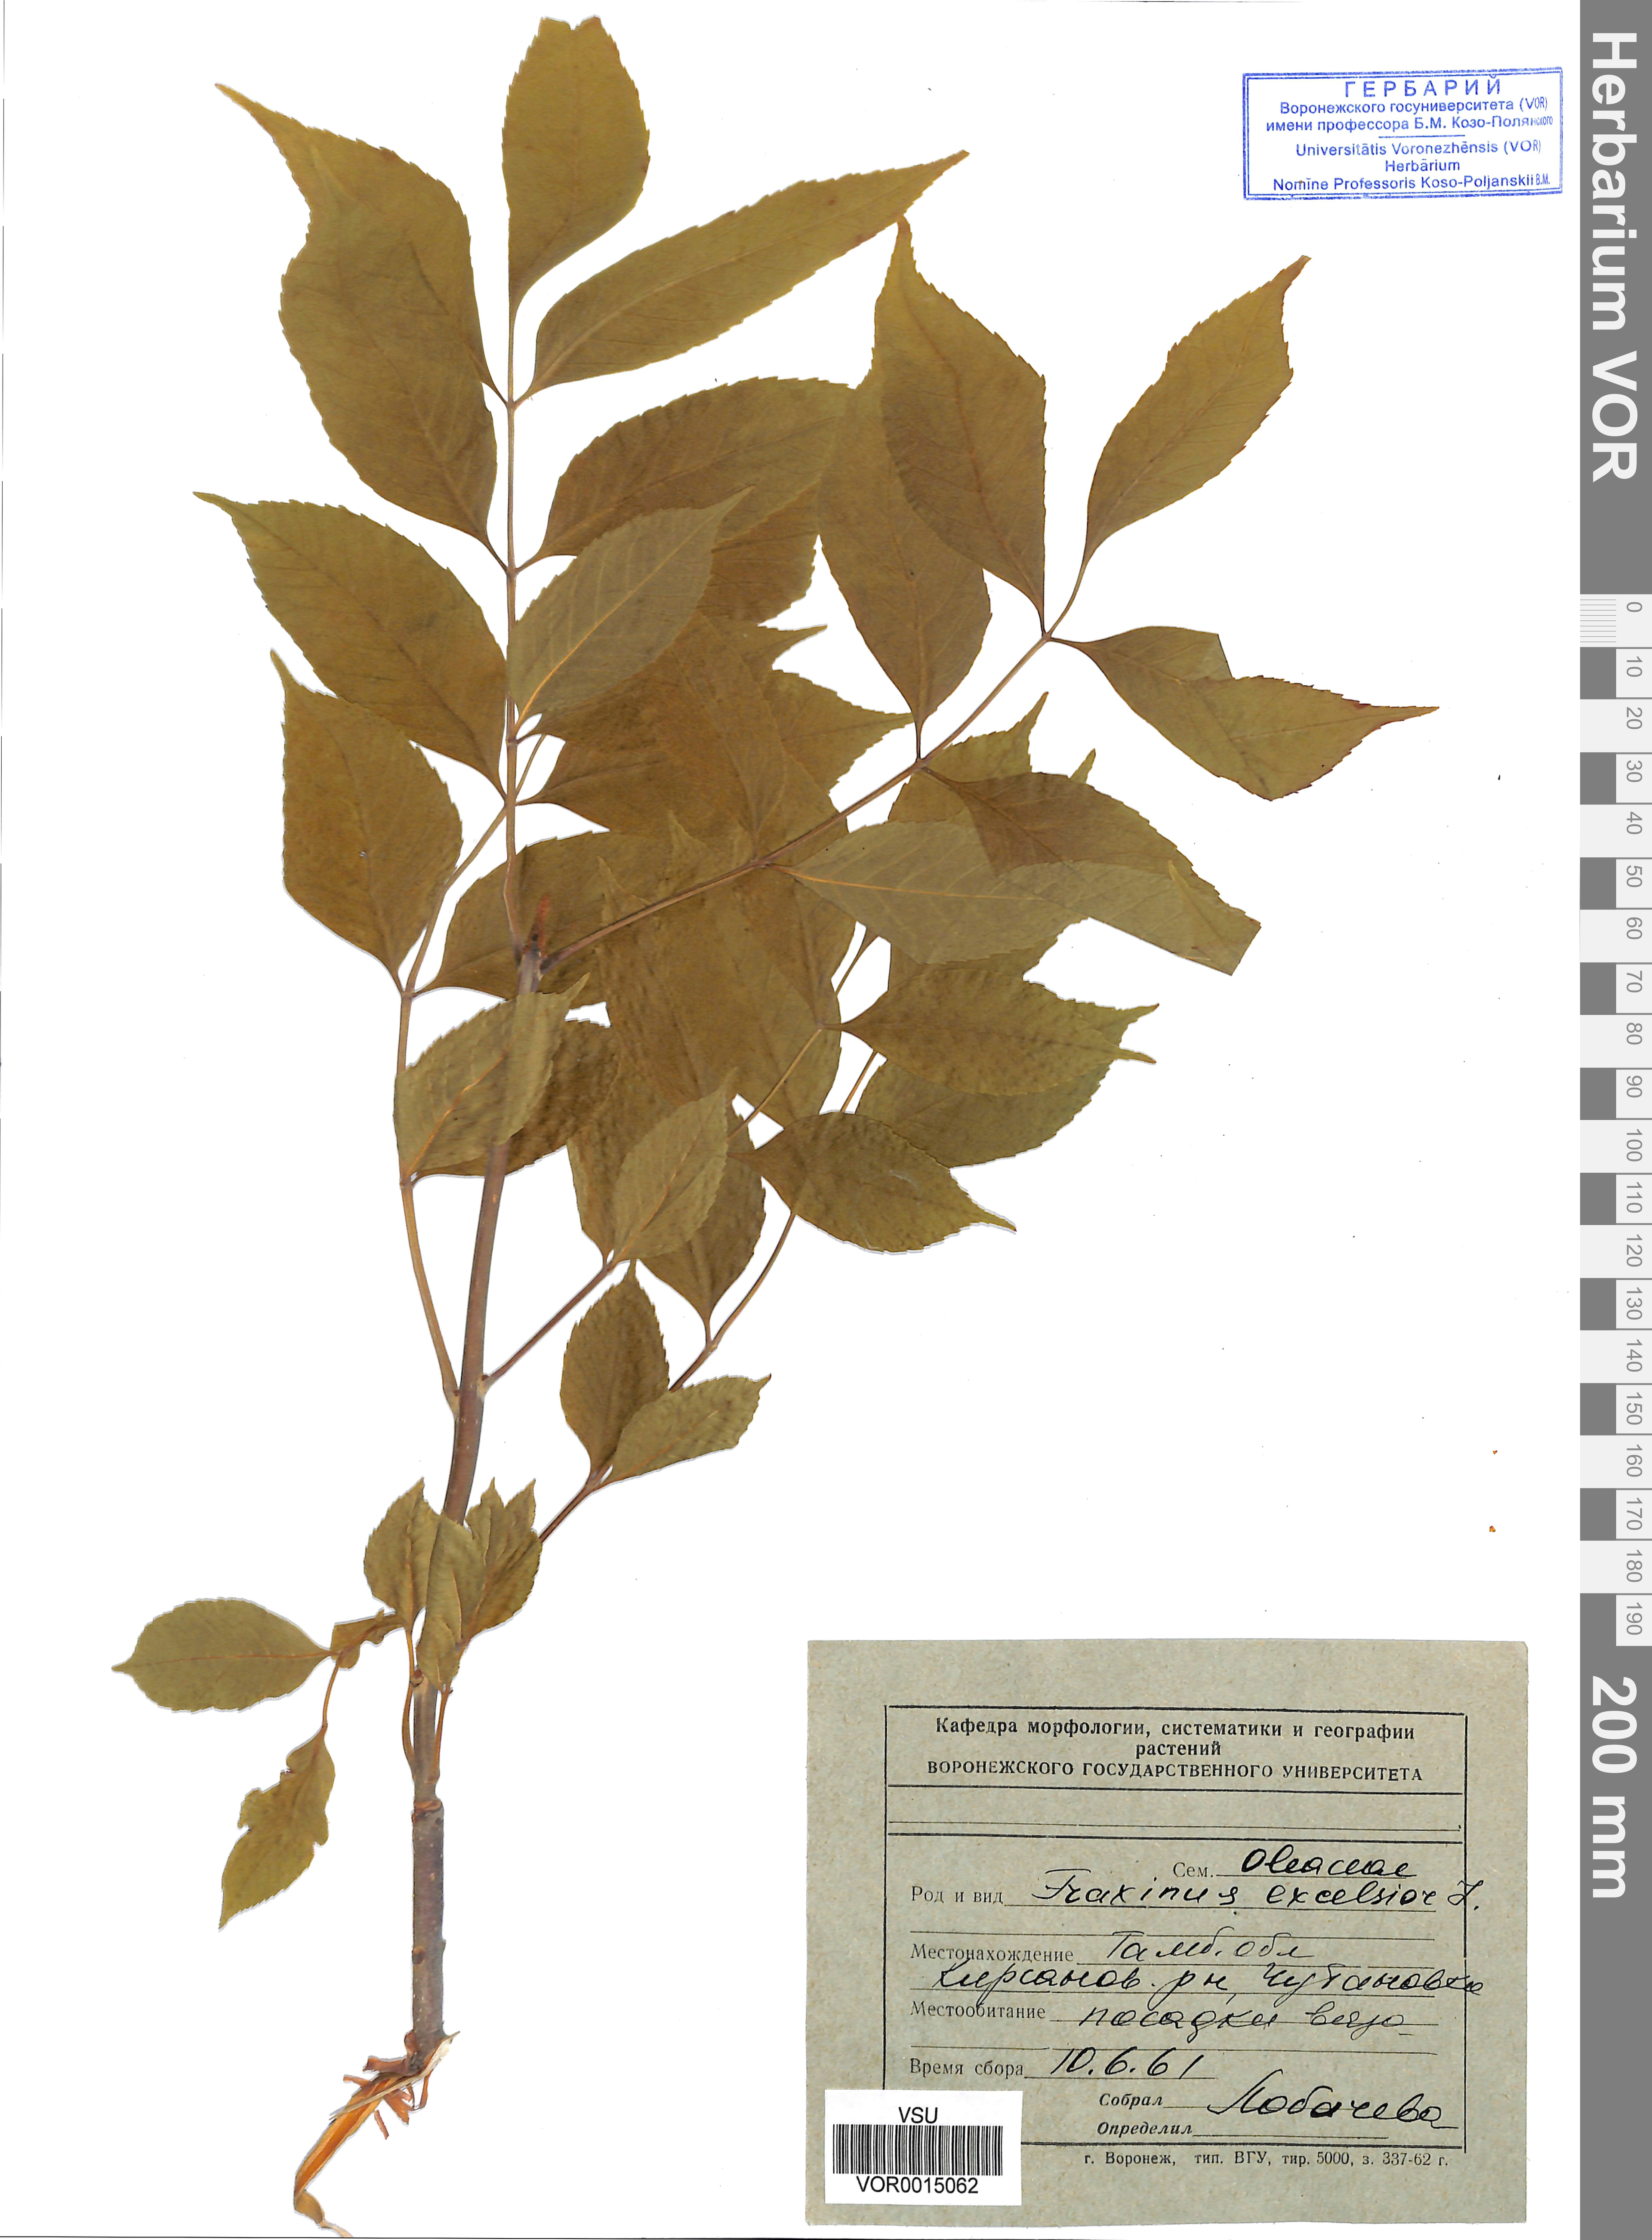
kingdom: Plantae
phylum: Tracheophyta
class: Magnoliopsida
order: Lamiales
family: Oleaceae
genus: Fraxinus
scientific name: Fraxinus excelsior
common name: European ash
